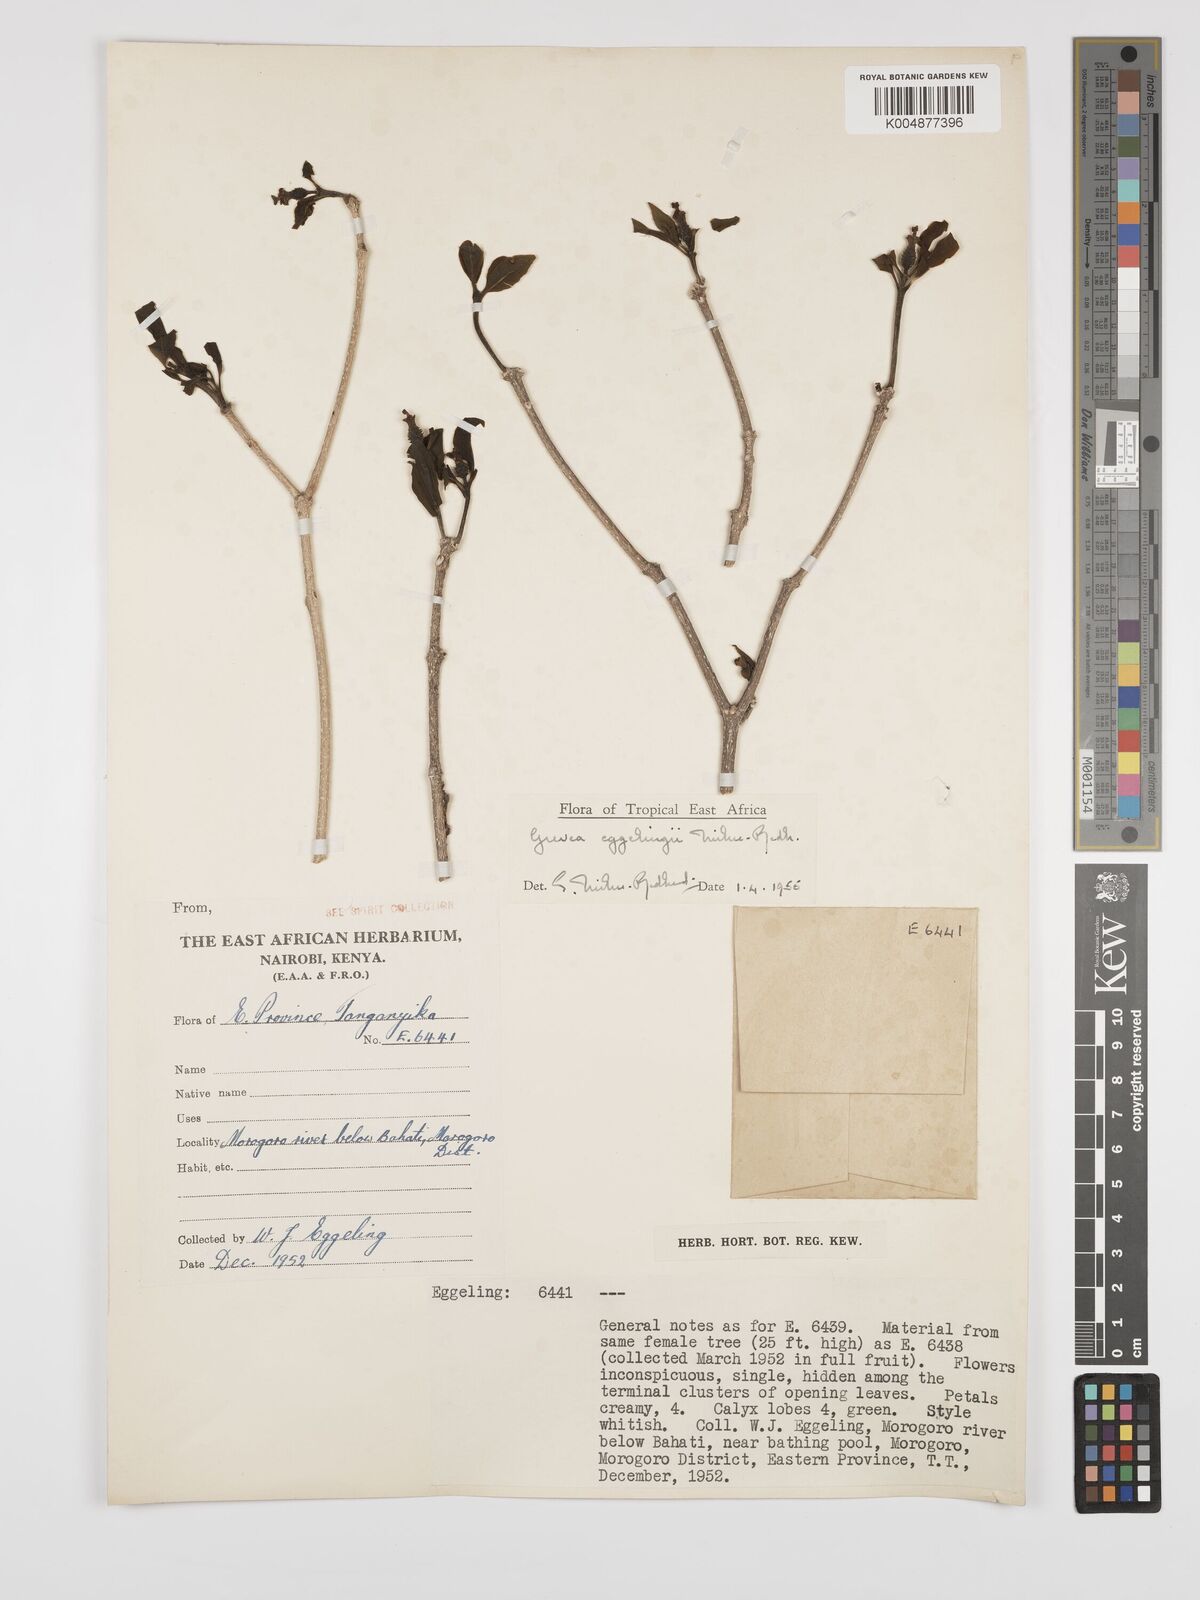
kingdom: Plantae
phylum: Tracheophyta
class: Magnoliopsida
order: Solanales
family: Montiniaceae
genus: Grevea
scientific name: Grevea eggelingii
